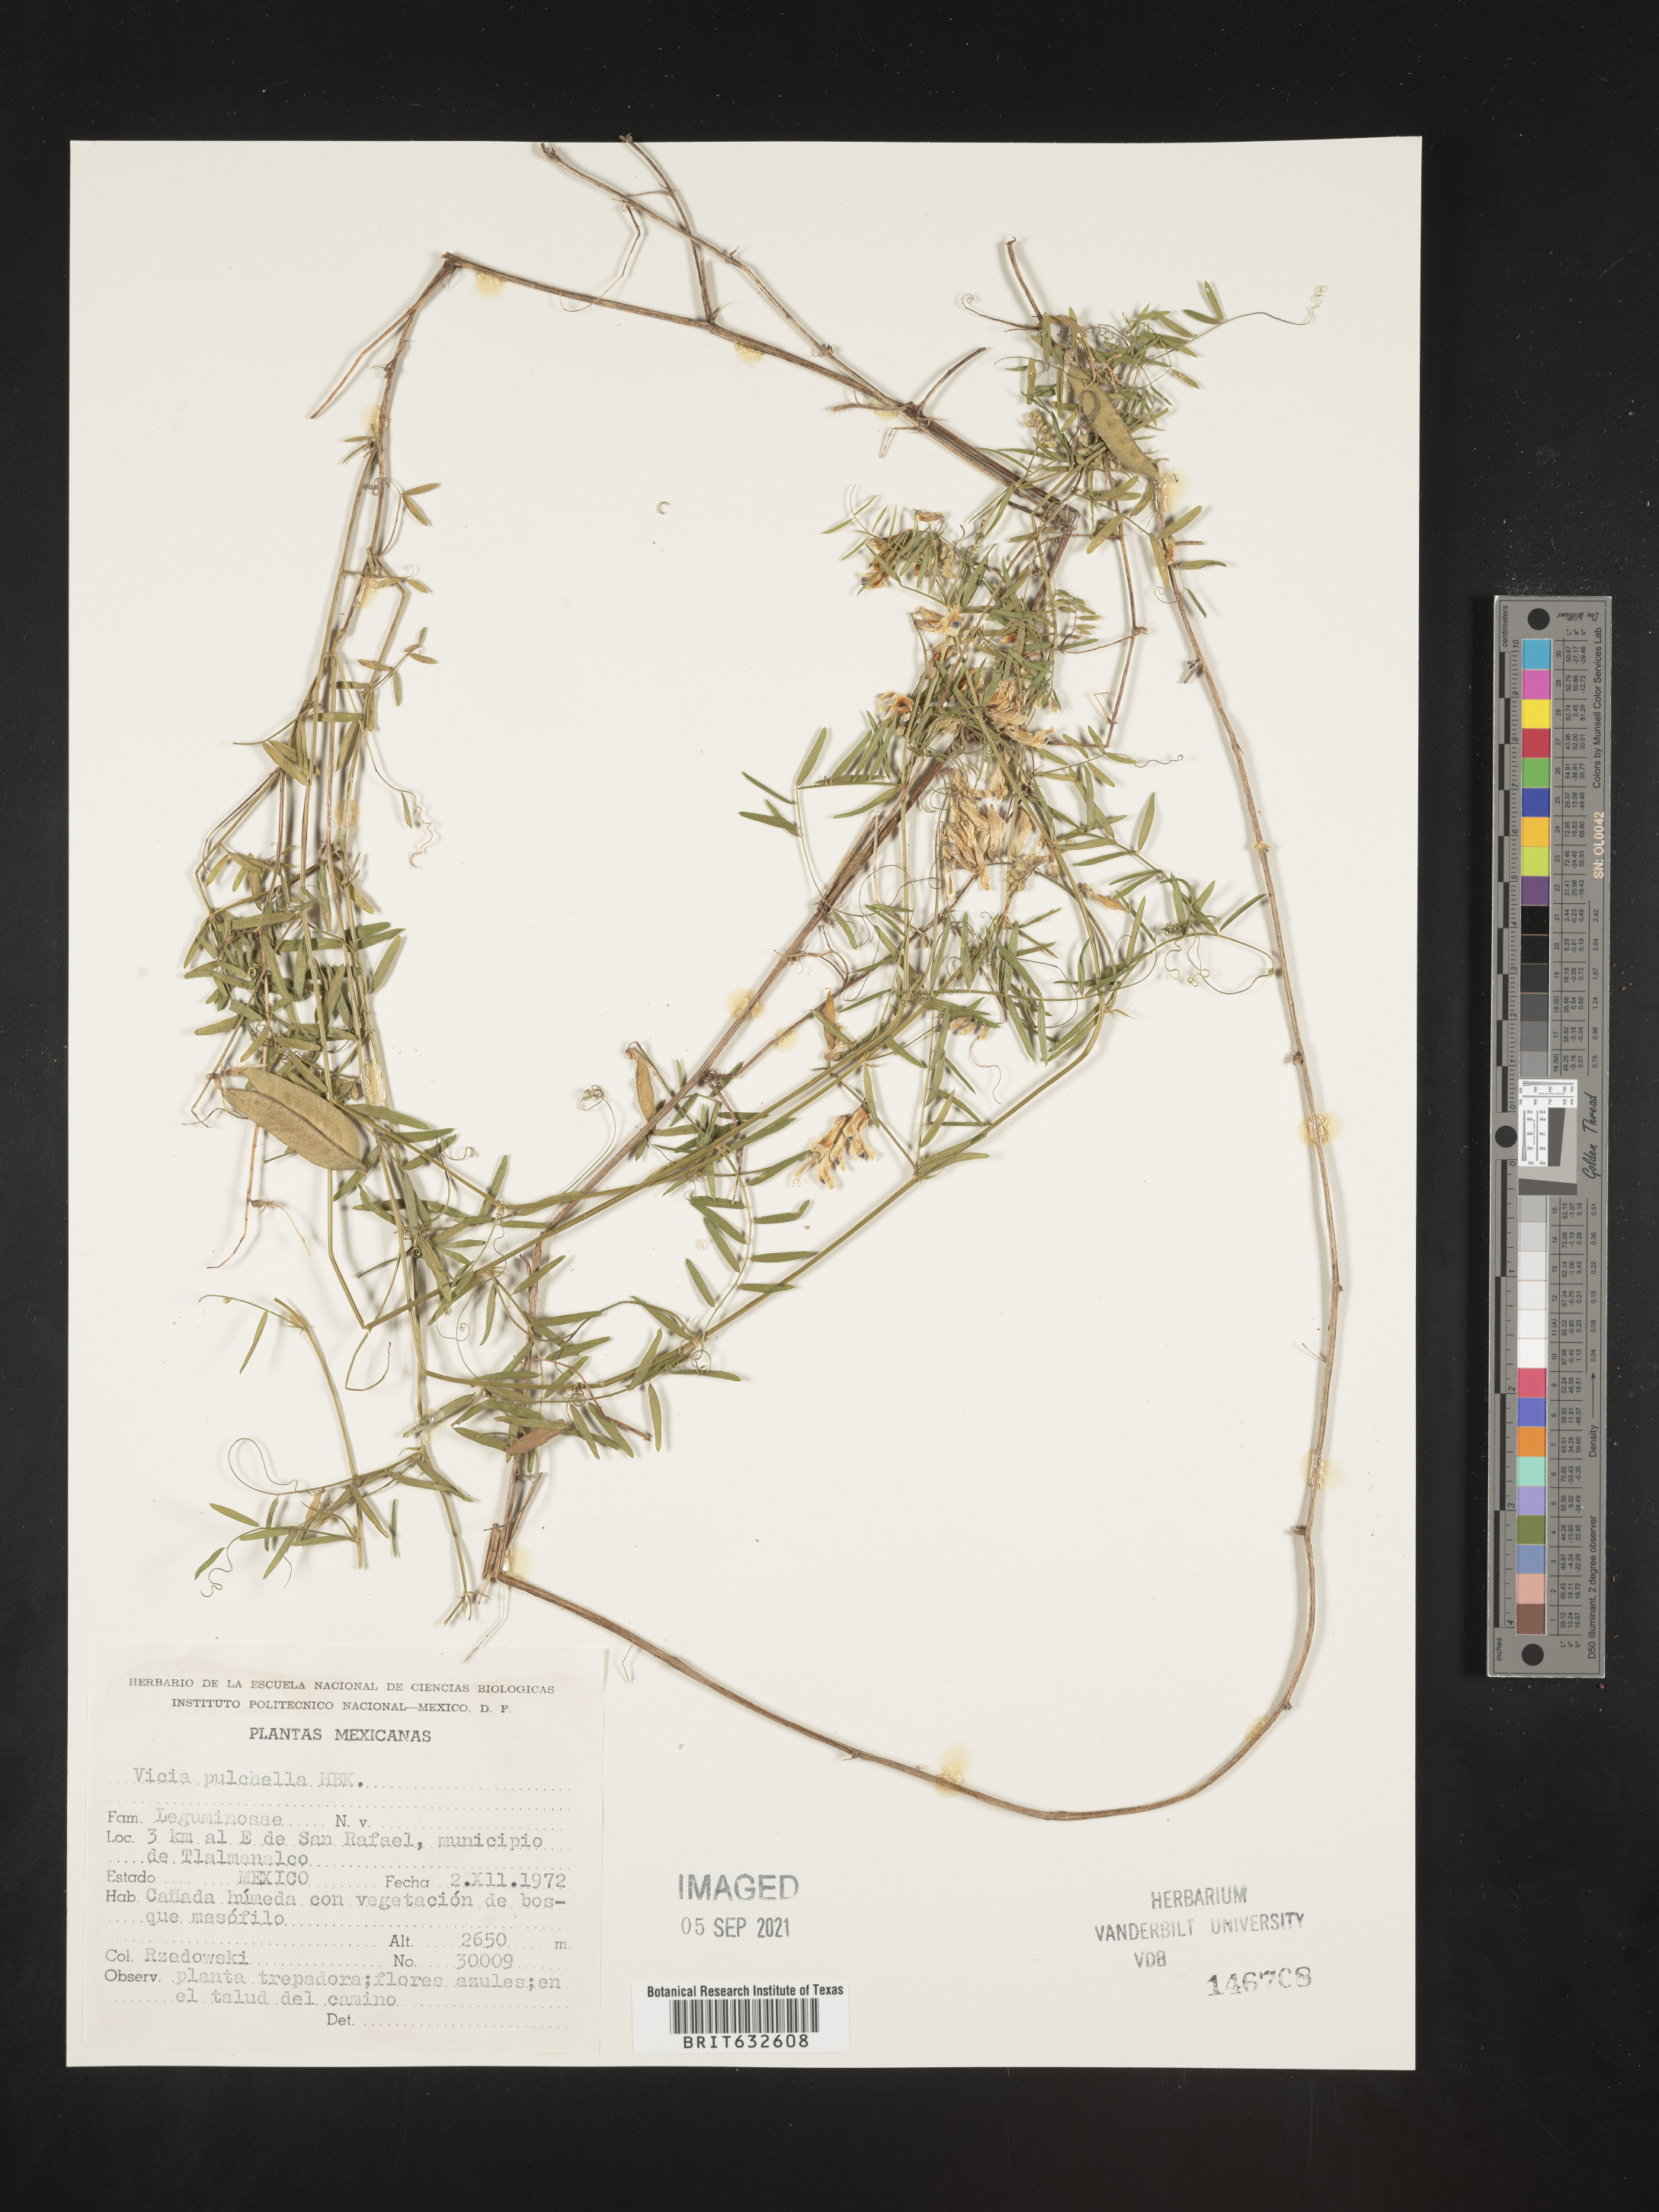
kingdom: Plantae
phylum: Tracheophyta
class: Magnoliopsida
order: Fabales
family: Fabaceae
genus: Vicia
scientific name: Vicia
